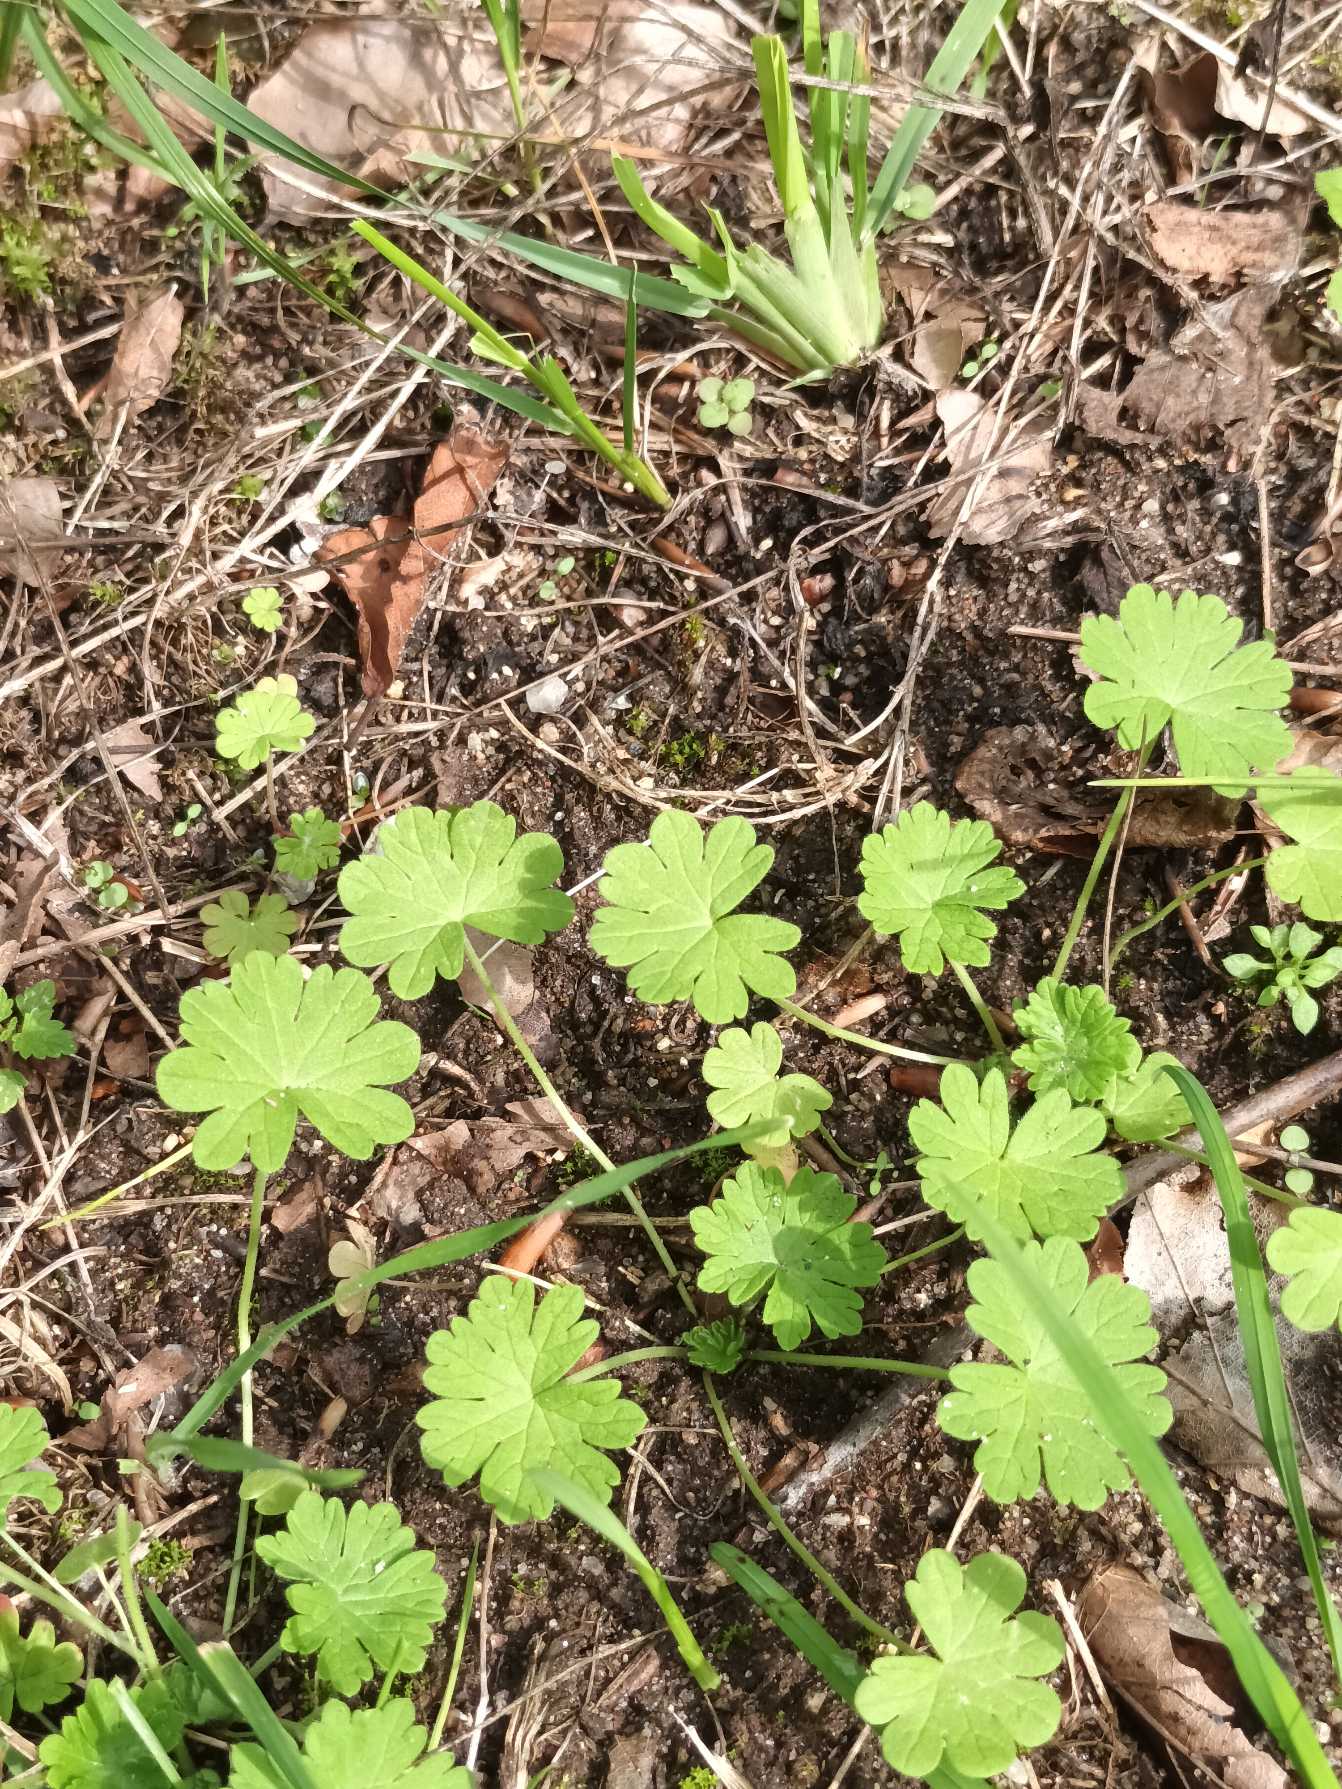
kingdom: Plantae
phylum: Tracheophyta
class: Magnoliopsida
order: Geraniales
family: Geraniaceae
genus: Geranium
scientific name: Geranium pusillum
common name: Liden storkenæb
